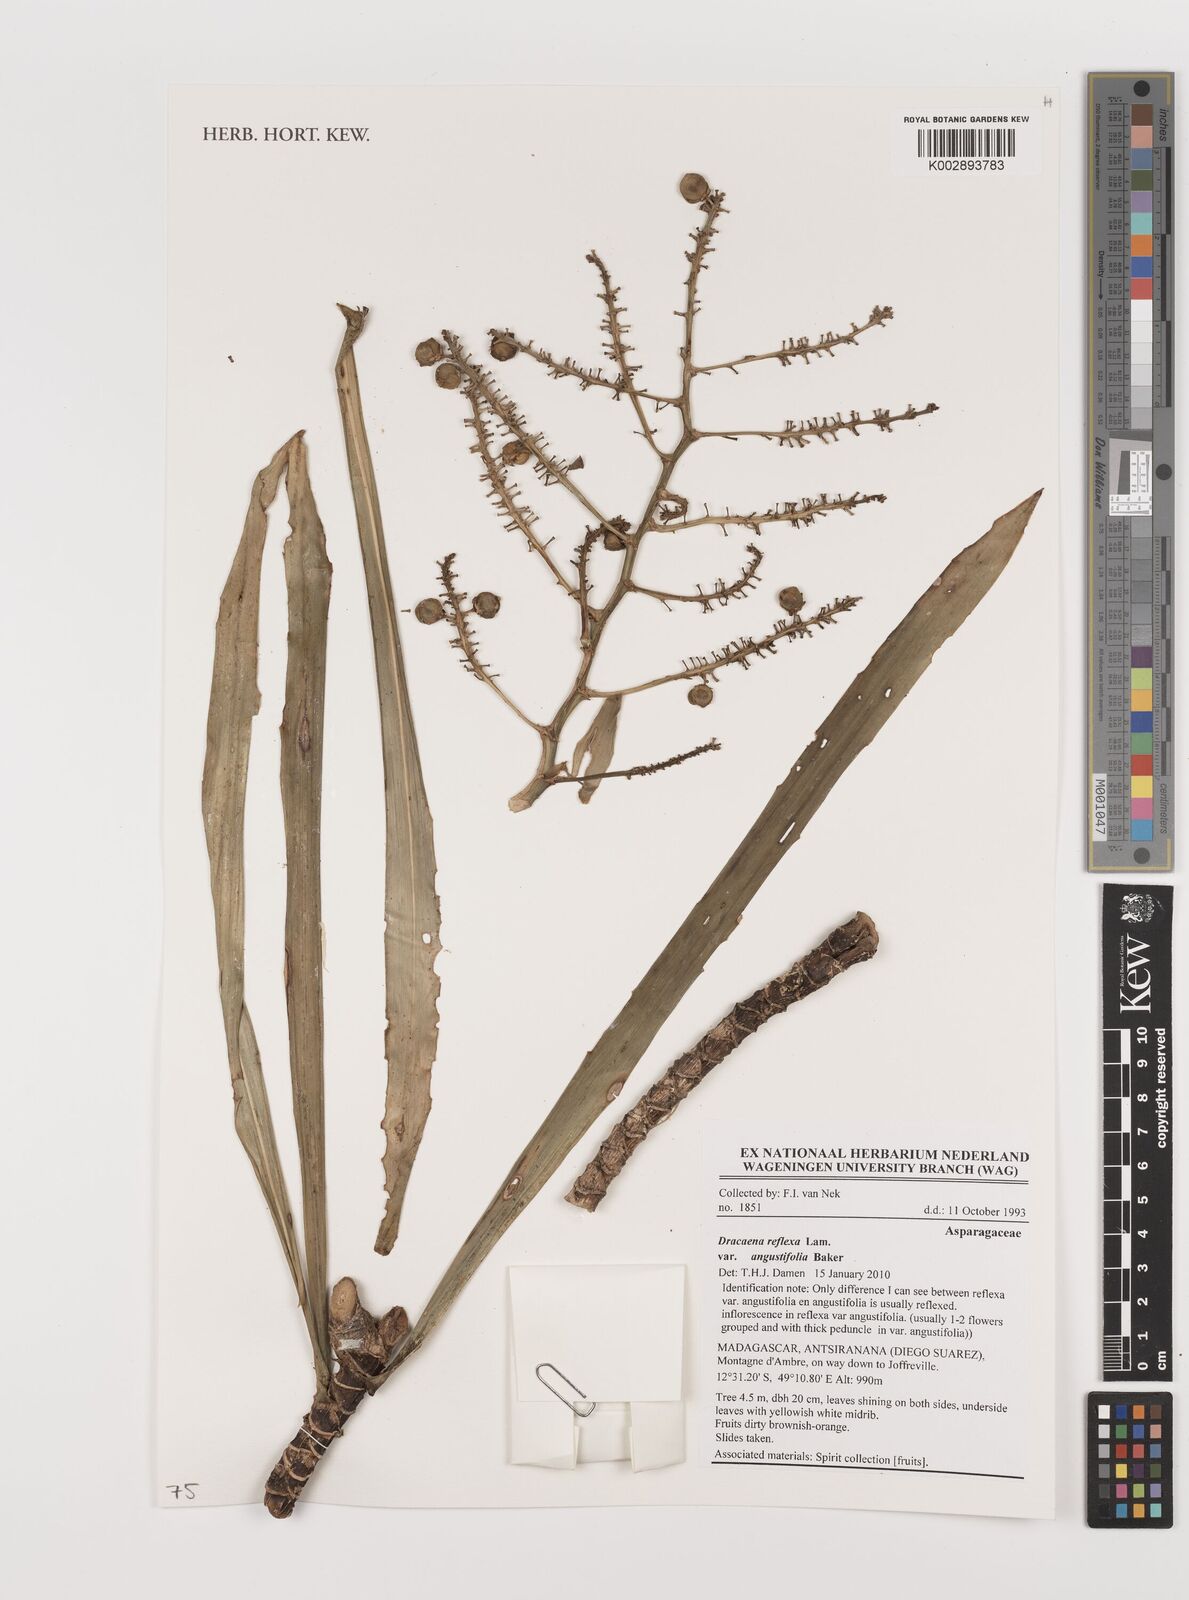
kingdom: Plantae
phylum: Tracheophyta
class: Liliopsida
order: Asparagales
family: Asparagaceae
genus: Dracaena
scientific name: Dracaena reflexa
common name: Song-of-india
